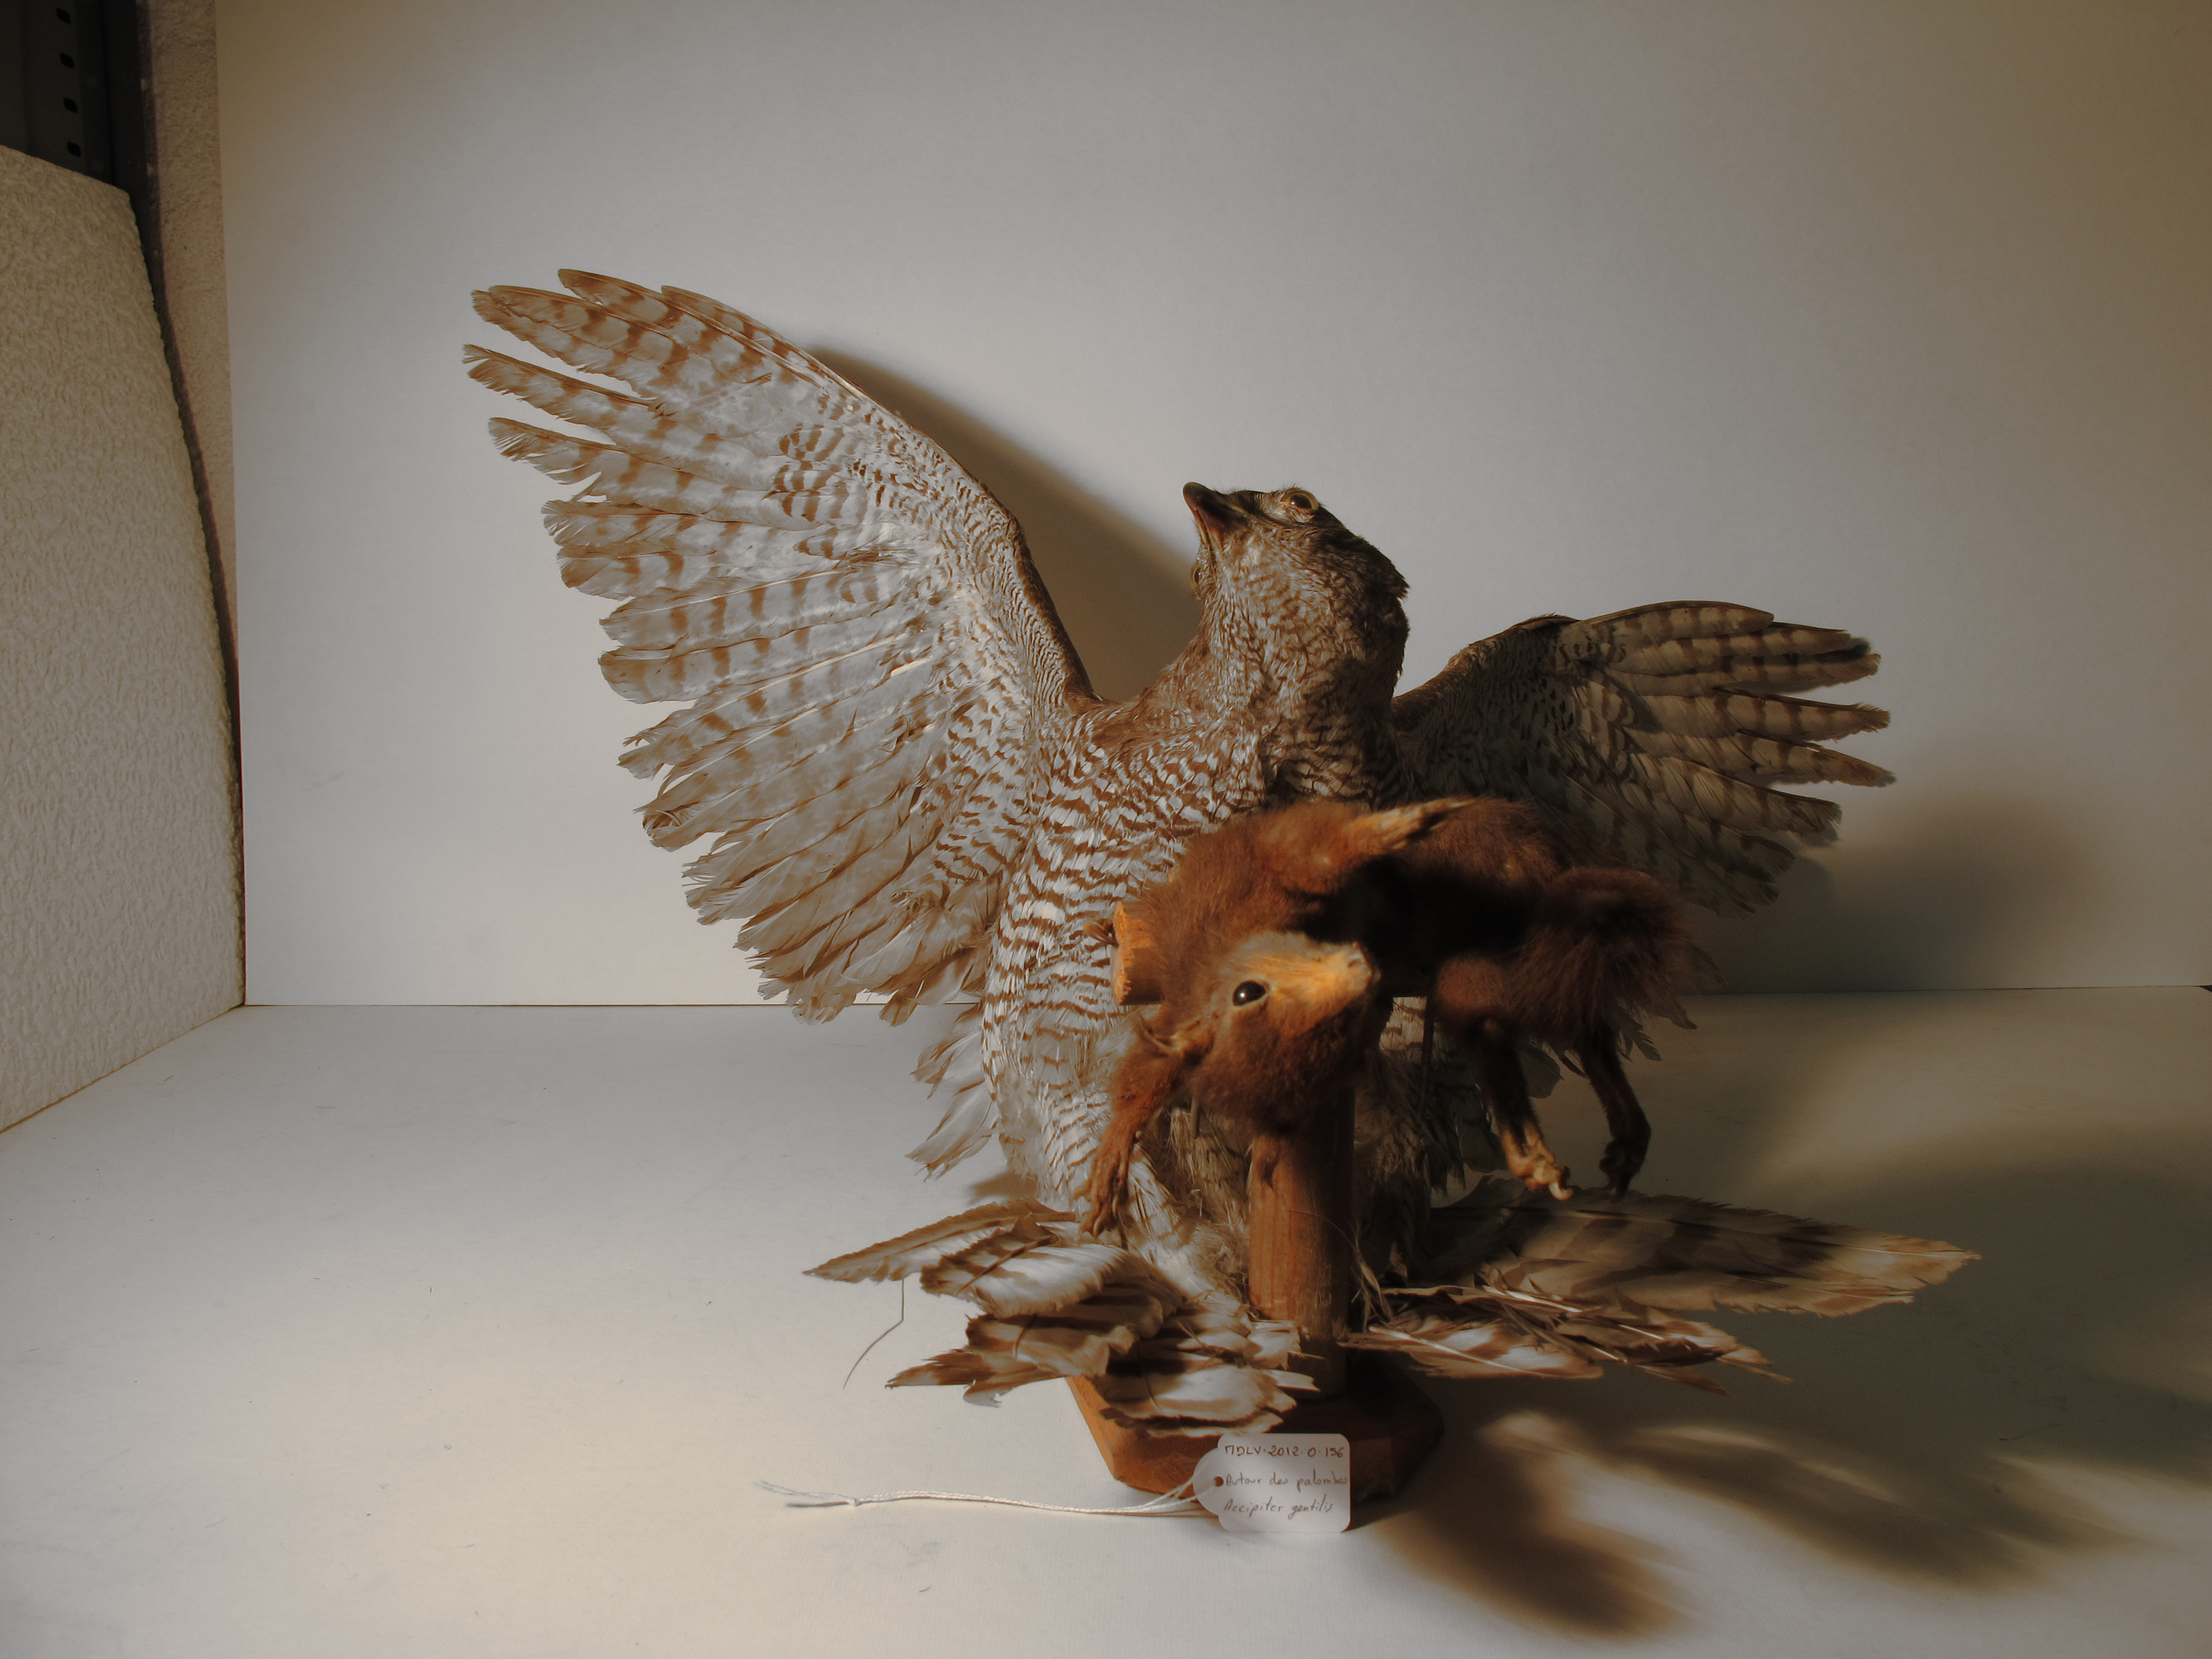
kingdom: Animalia
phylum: Chordata
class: Aves
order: Accipitriformes
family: Accipitridae
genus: Accipiter
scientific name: Accipiter gentilis
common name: Northern Goshawk
